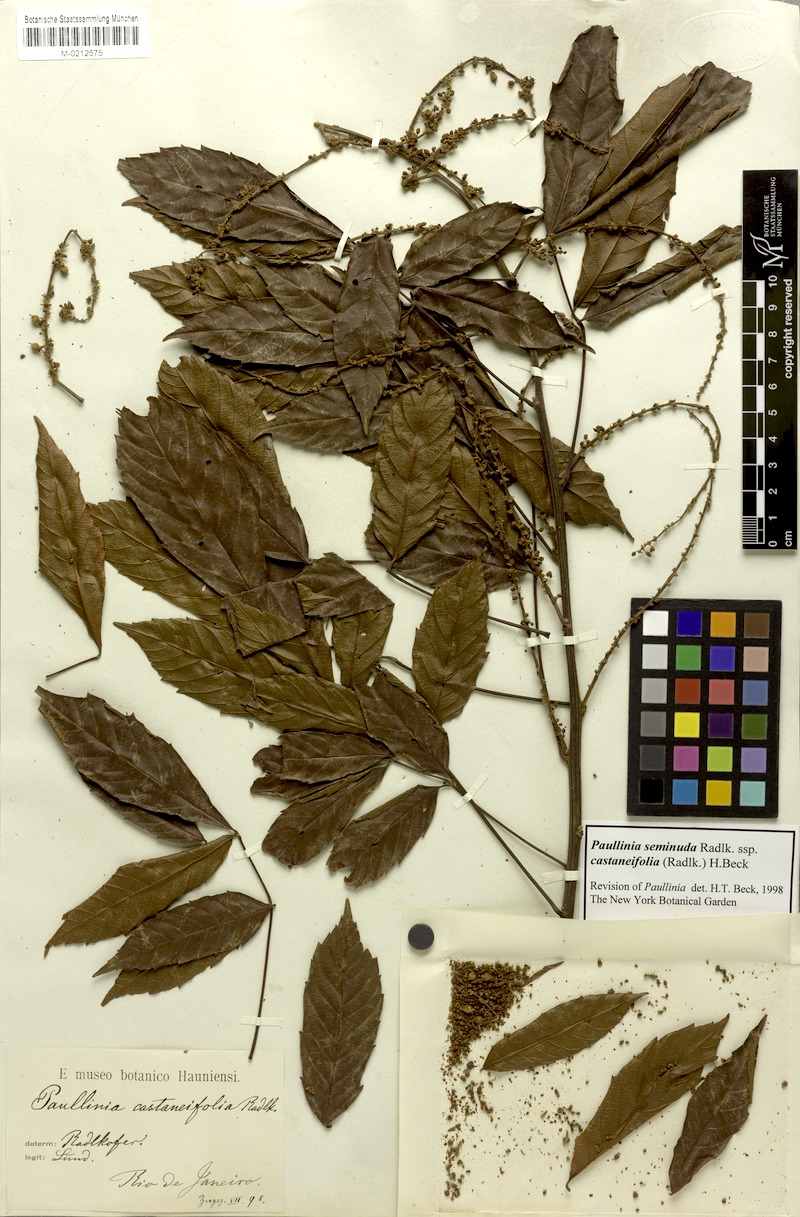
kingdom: Plantae
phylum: Tracheophyta
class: Magnoliopsida
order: Sapindales
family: Sapindaceae
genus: Paullinia
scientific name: Paullinia seminuda
